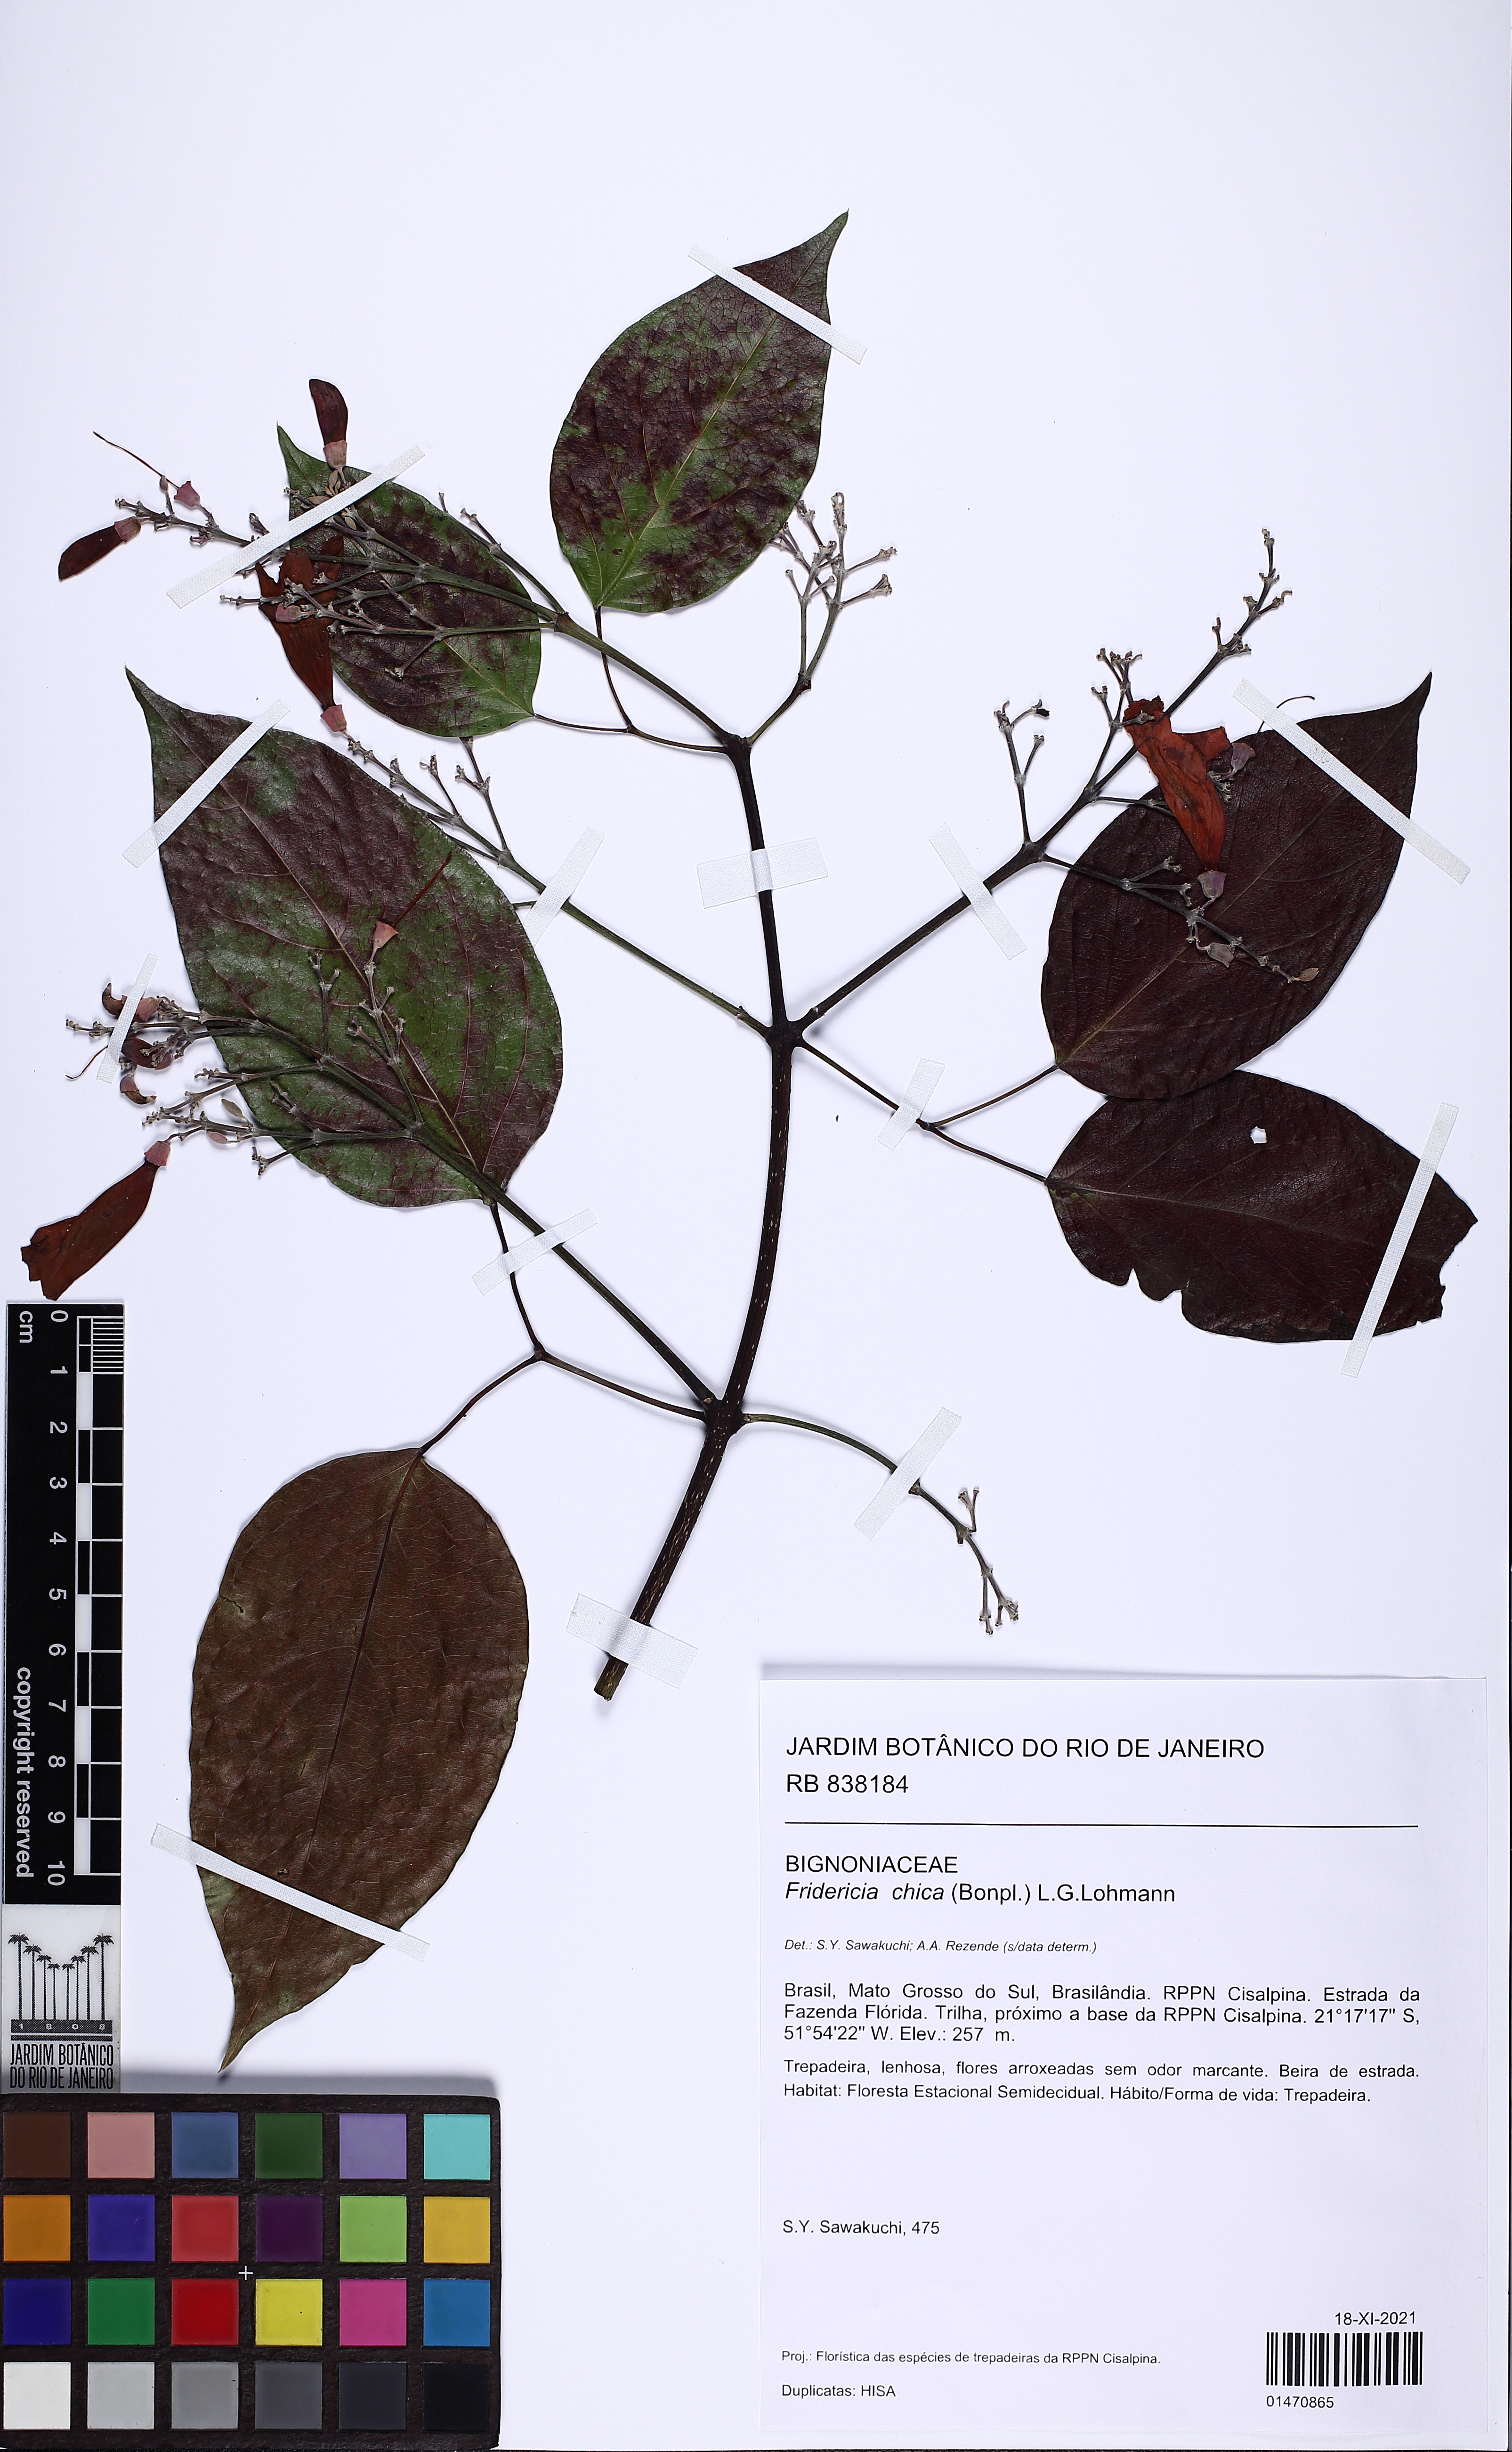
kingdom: Plantae
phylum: Tracheophyta
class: Magnoliopsida
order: Lamiales
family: Bignoniaceae
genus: Fridericia
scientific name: Fridericia chica
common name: Cricketvine
